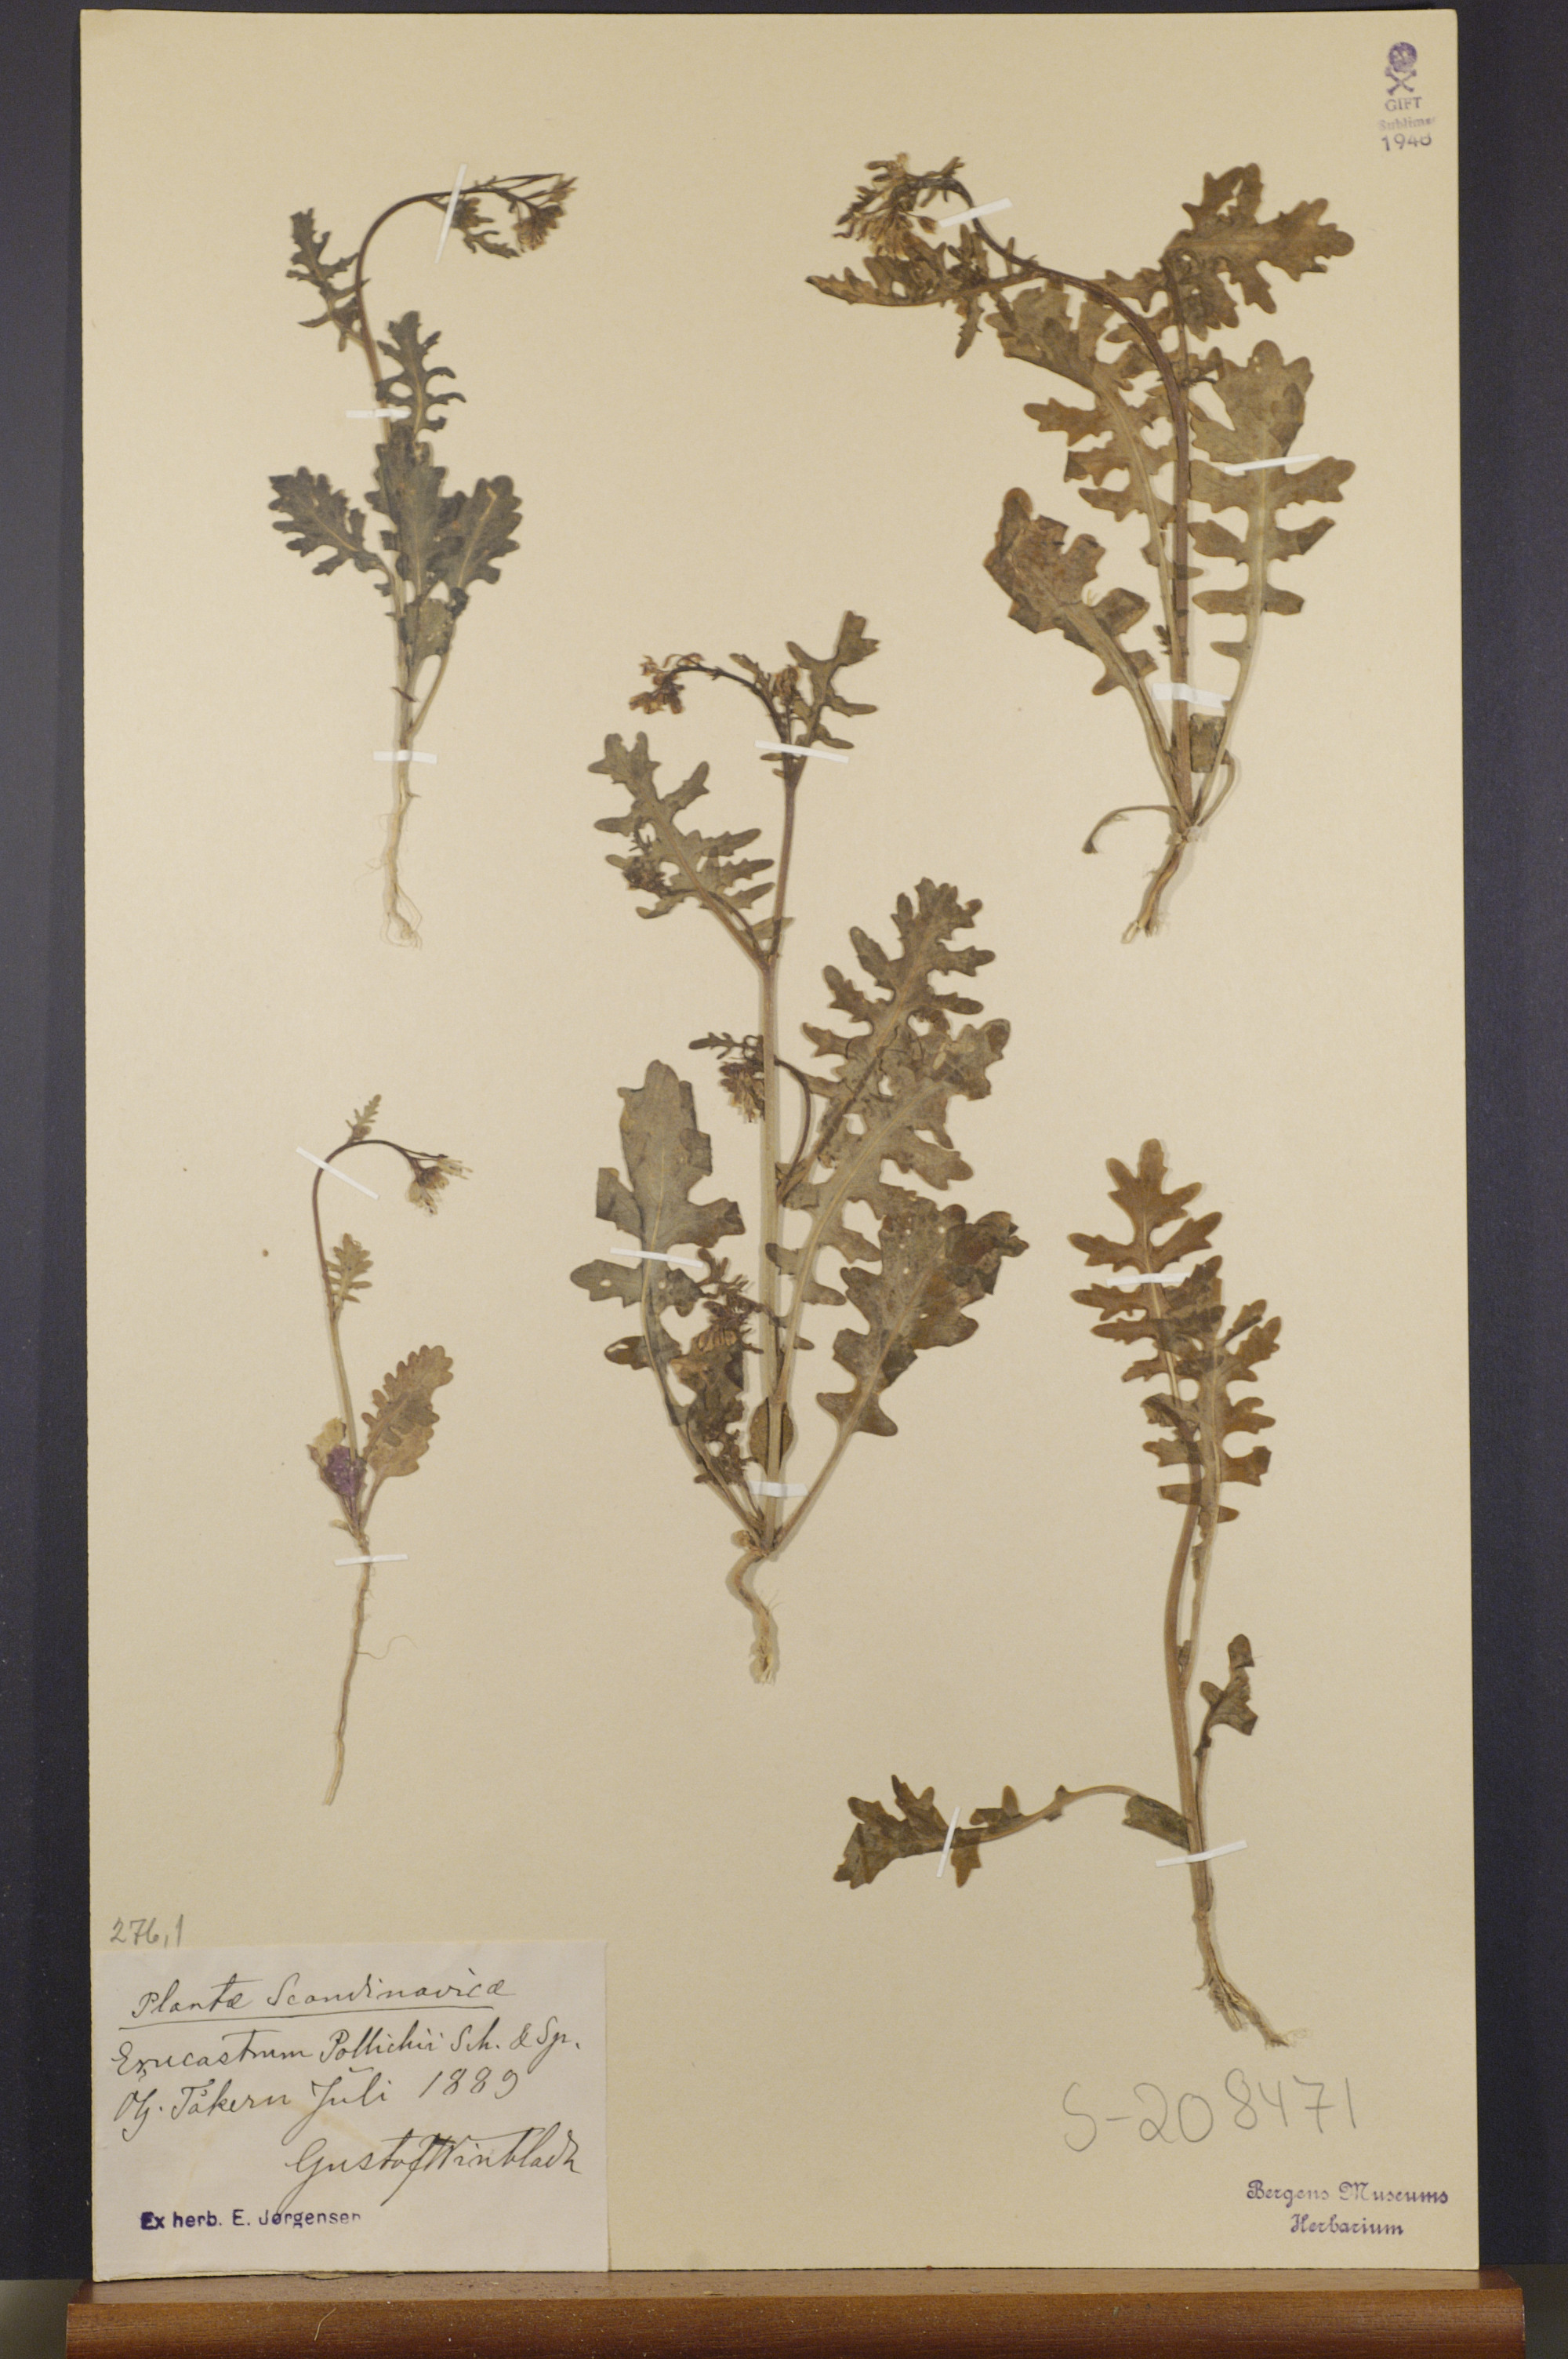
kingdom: Plantae
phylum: Tracheophyta
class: Magnoliopsida
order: Brassicales
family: Brassicaceae
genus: Erucastrum
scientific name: Erucastrum gallicum
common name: Hairy rocket
